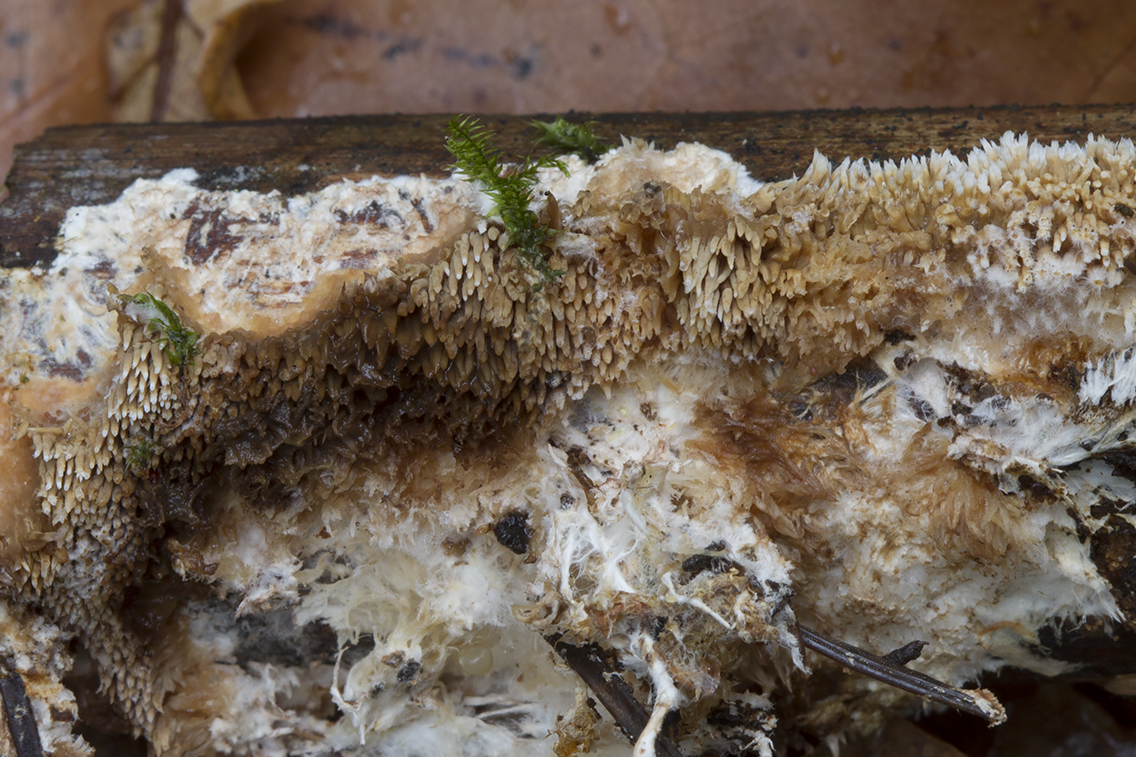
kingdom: Fungi
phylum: Basidiomycota
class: Agaricomycetes
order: Gomphales
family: Lentariaceae
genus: Kavinia
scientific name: Kavinia alboviridis
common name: grøn koralpig
